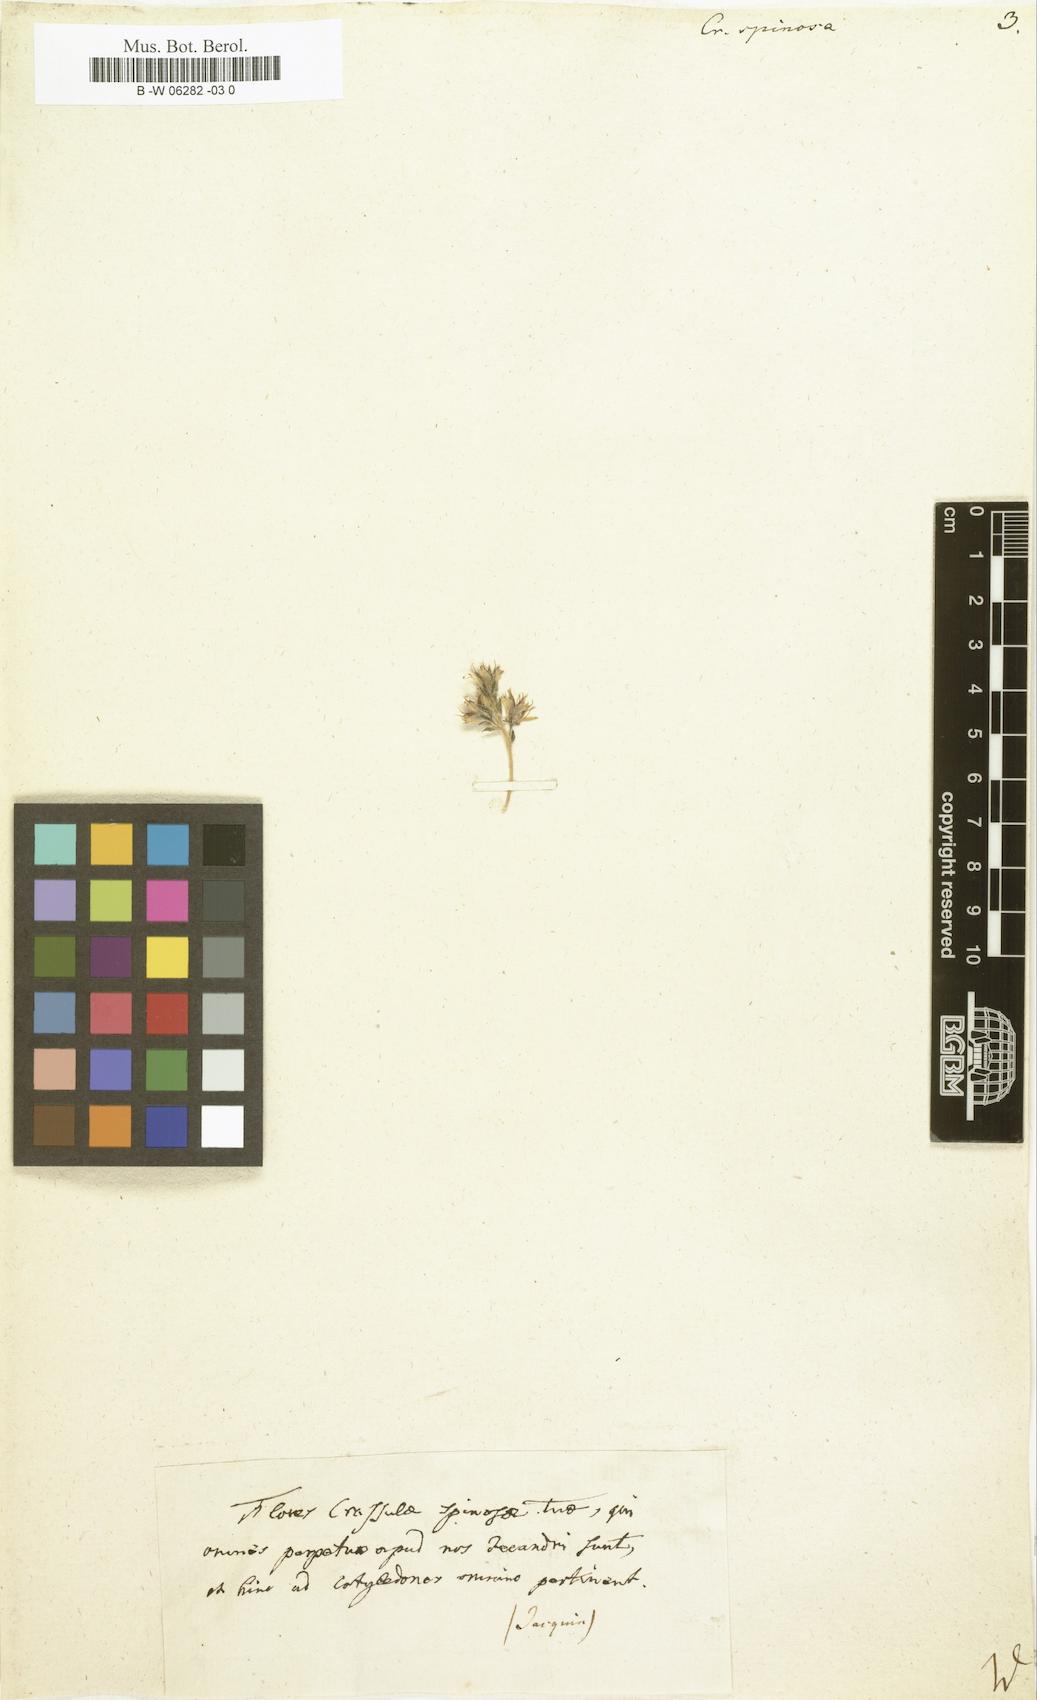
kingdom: Plantae
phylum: Tracheophyta
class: Magnoliopsida
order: Saxifragales
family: Crassulaceae
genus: Orostachys
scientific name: Orostachys spinosa
